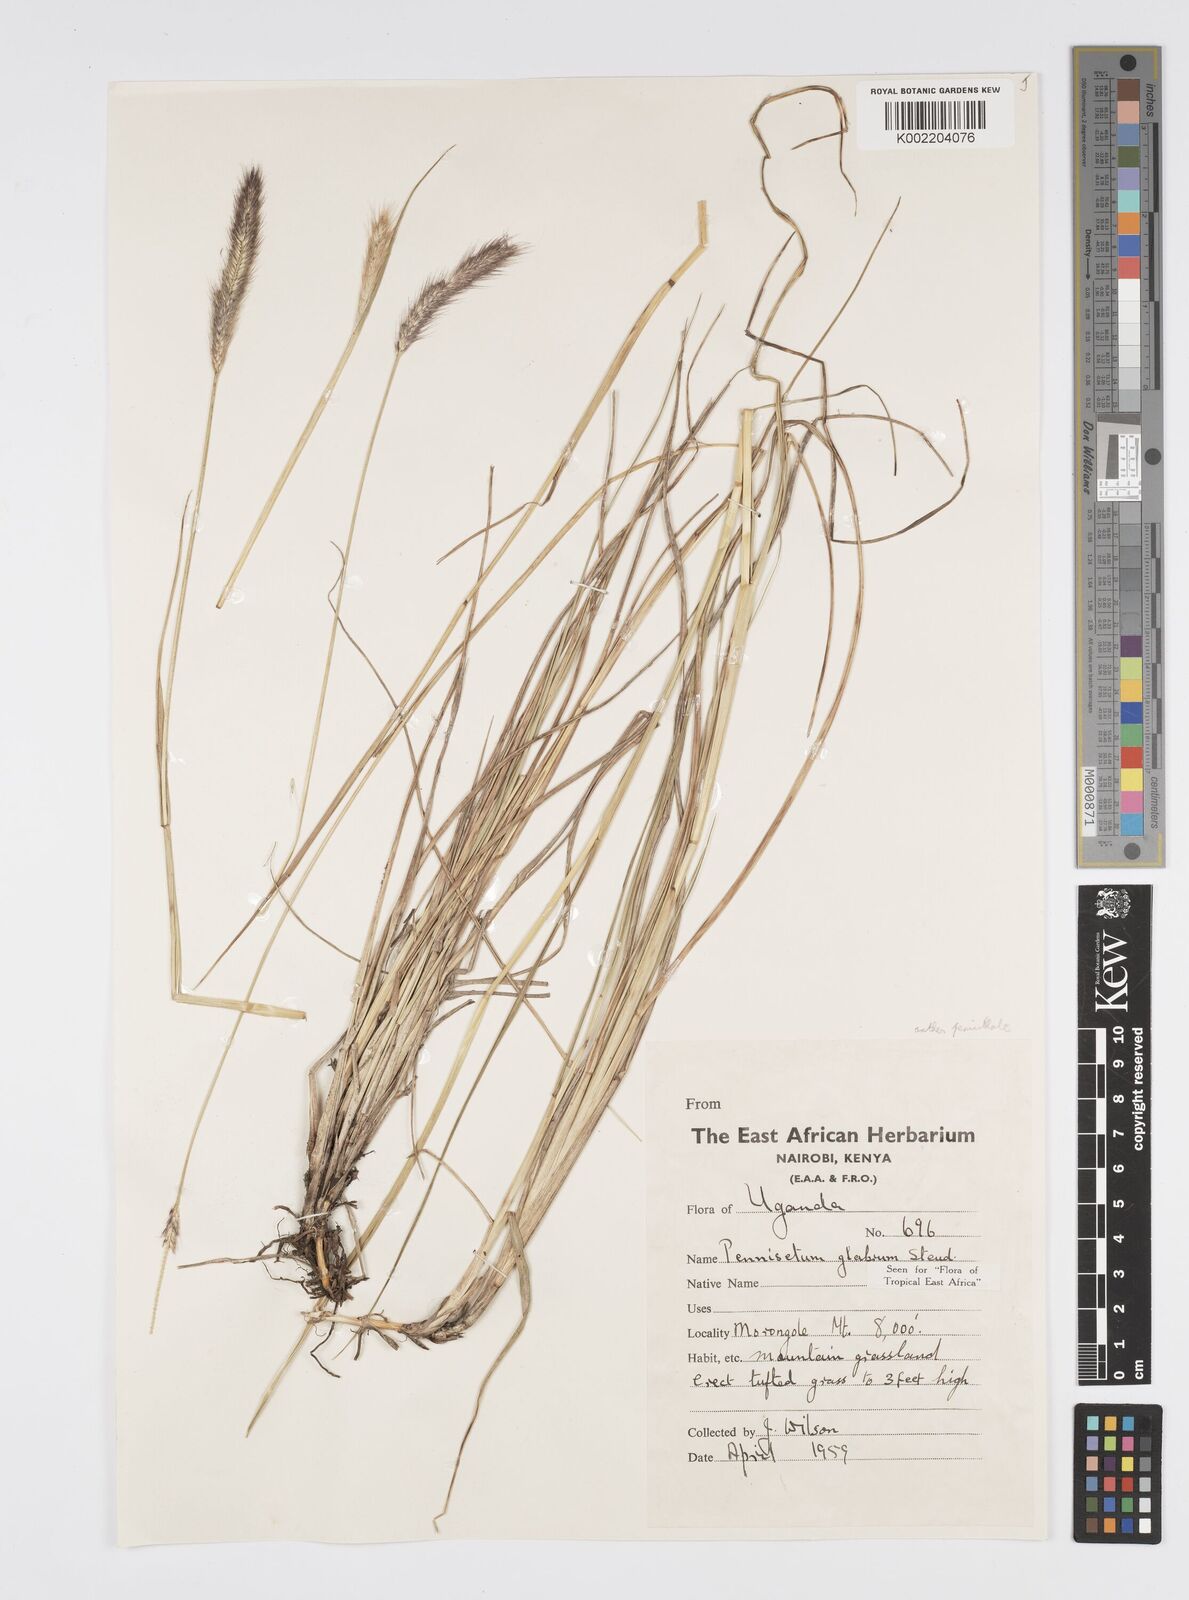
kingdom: Plantae
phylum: Tracheophyta
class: Liliopsida
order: Poales
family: Poaceae
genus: Cenchrus
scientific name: Cenchrus geniculatus
